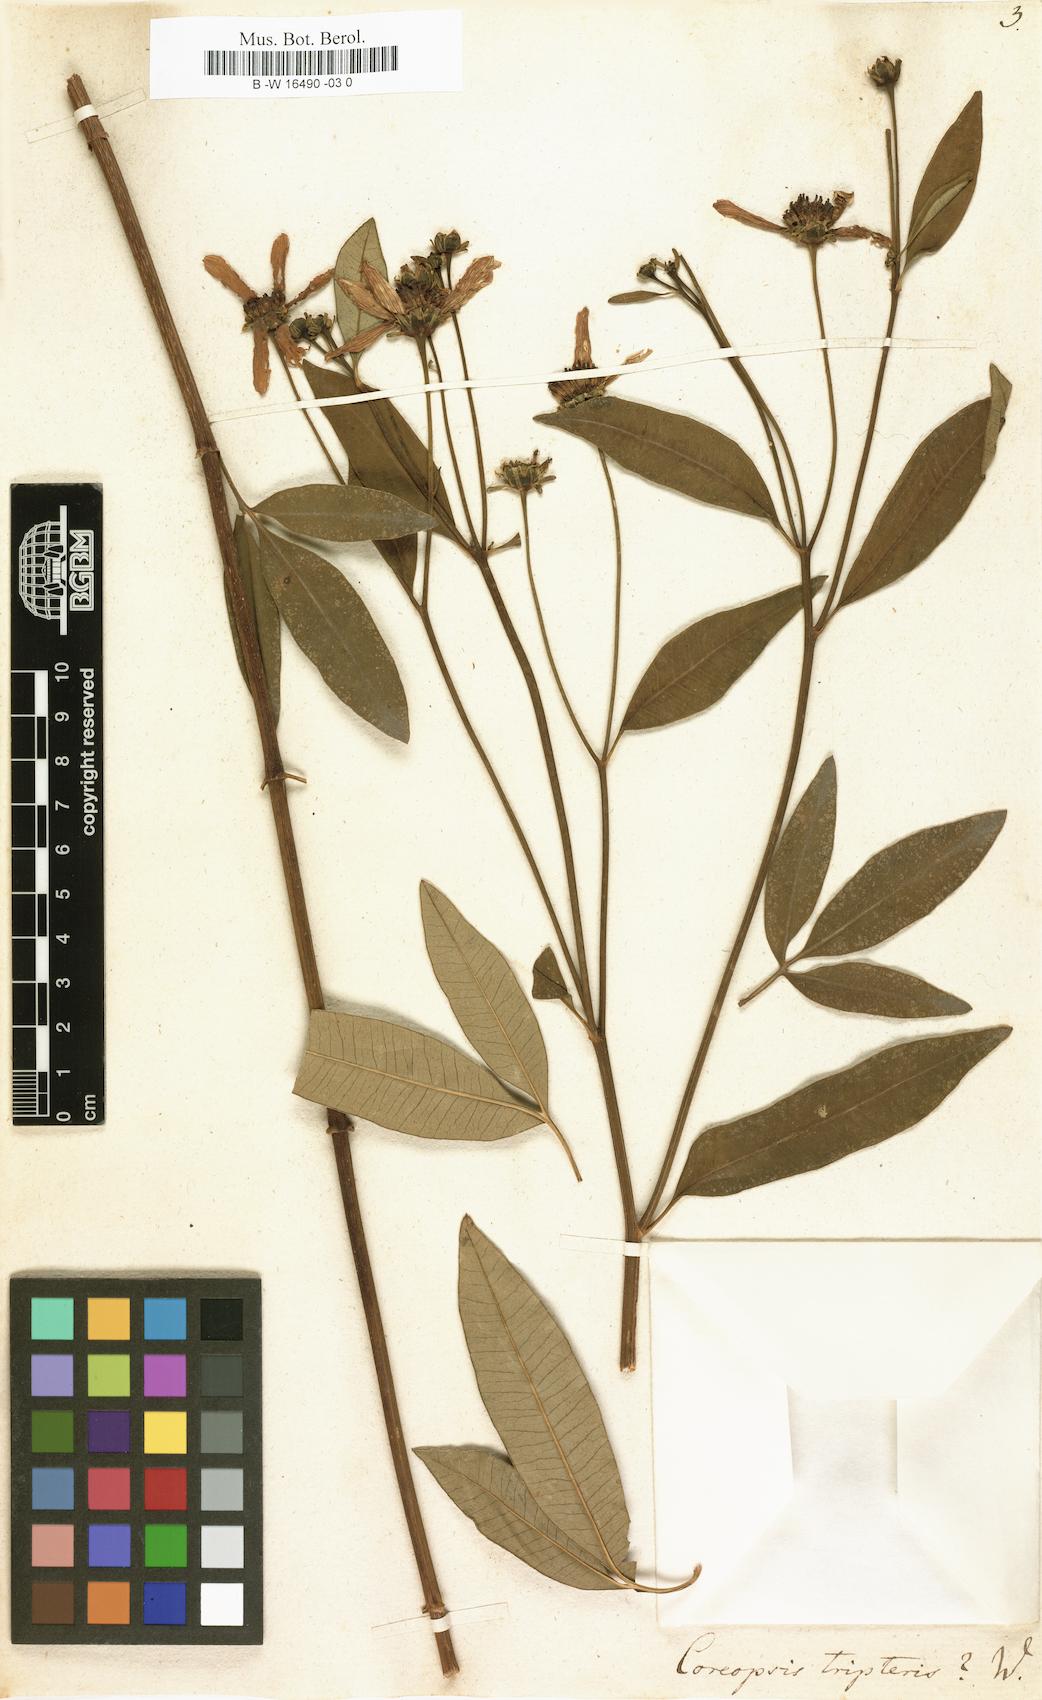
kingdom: Plantae
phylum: Tracheophyta
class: Magnoliopsida
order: Asterales
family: Asteraceae
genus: Coreopsis
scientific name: Coreopsis tripteris
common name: Tall coreopsis
